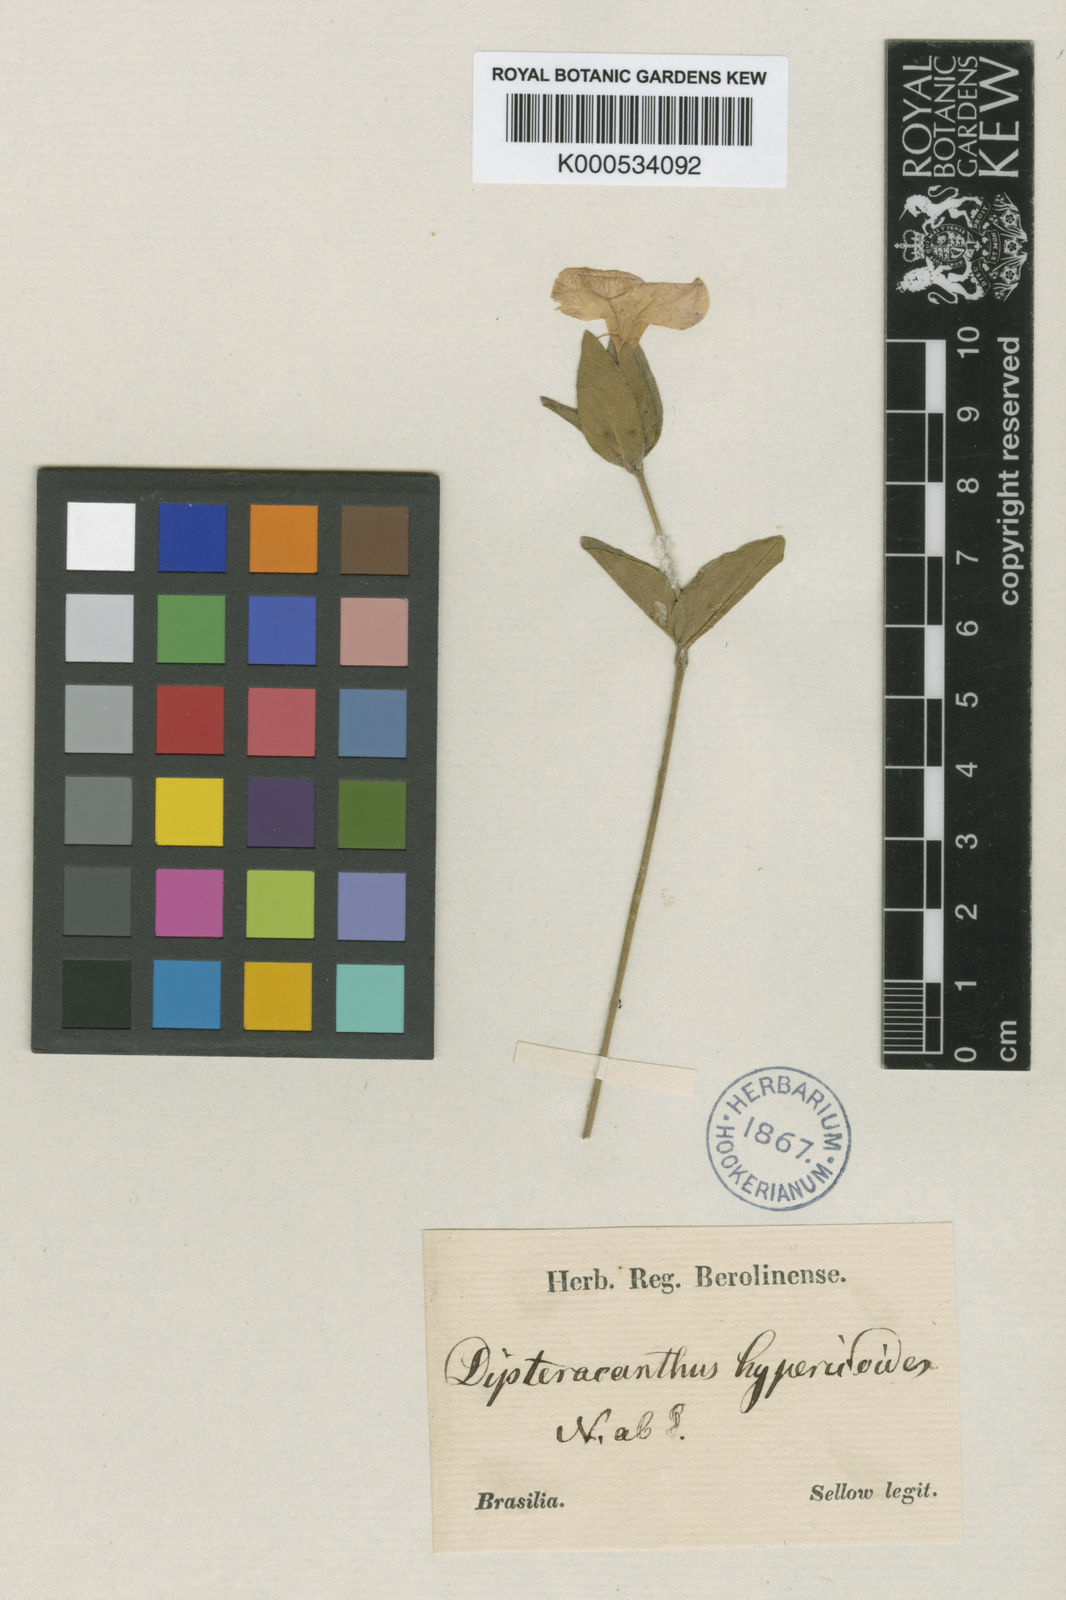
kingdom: Plantae
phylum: Tracheophyta
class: Magnoliopsida
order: Lamiales
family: Acanthaceae
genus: Ruellia
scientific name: Ruellia hypericoides
